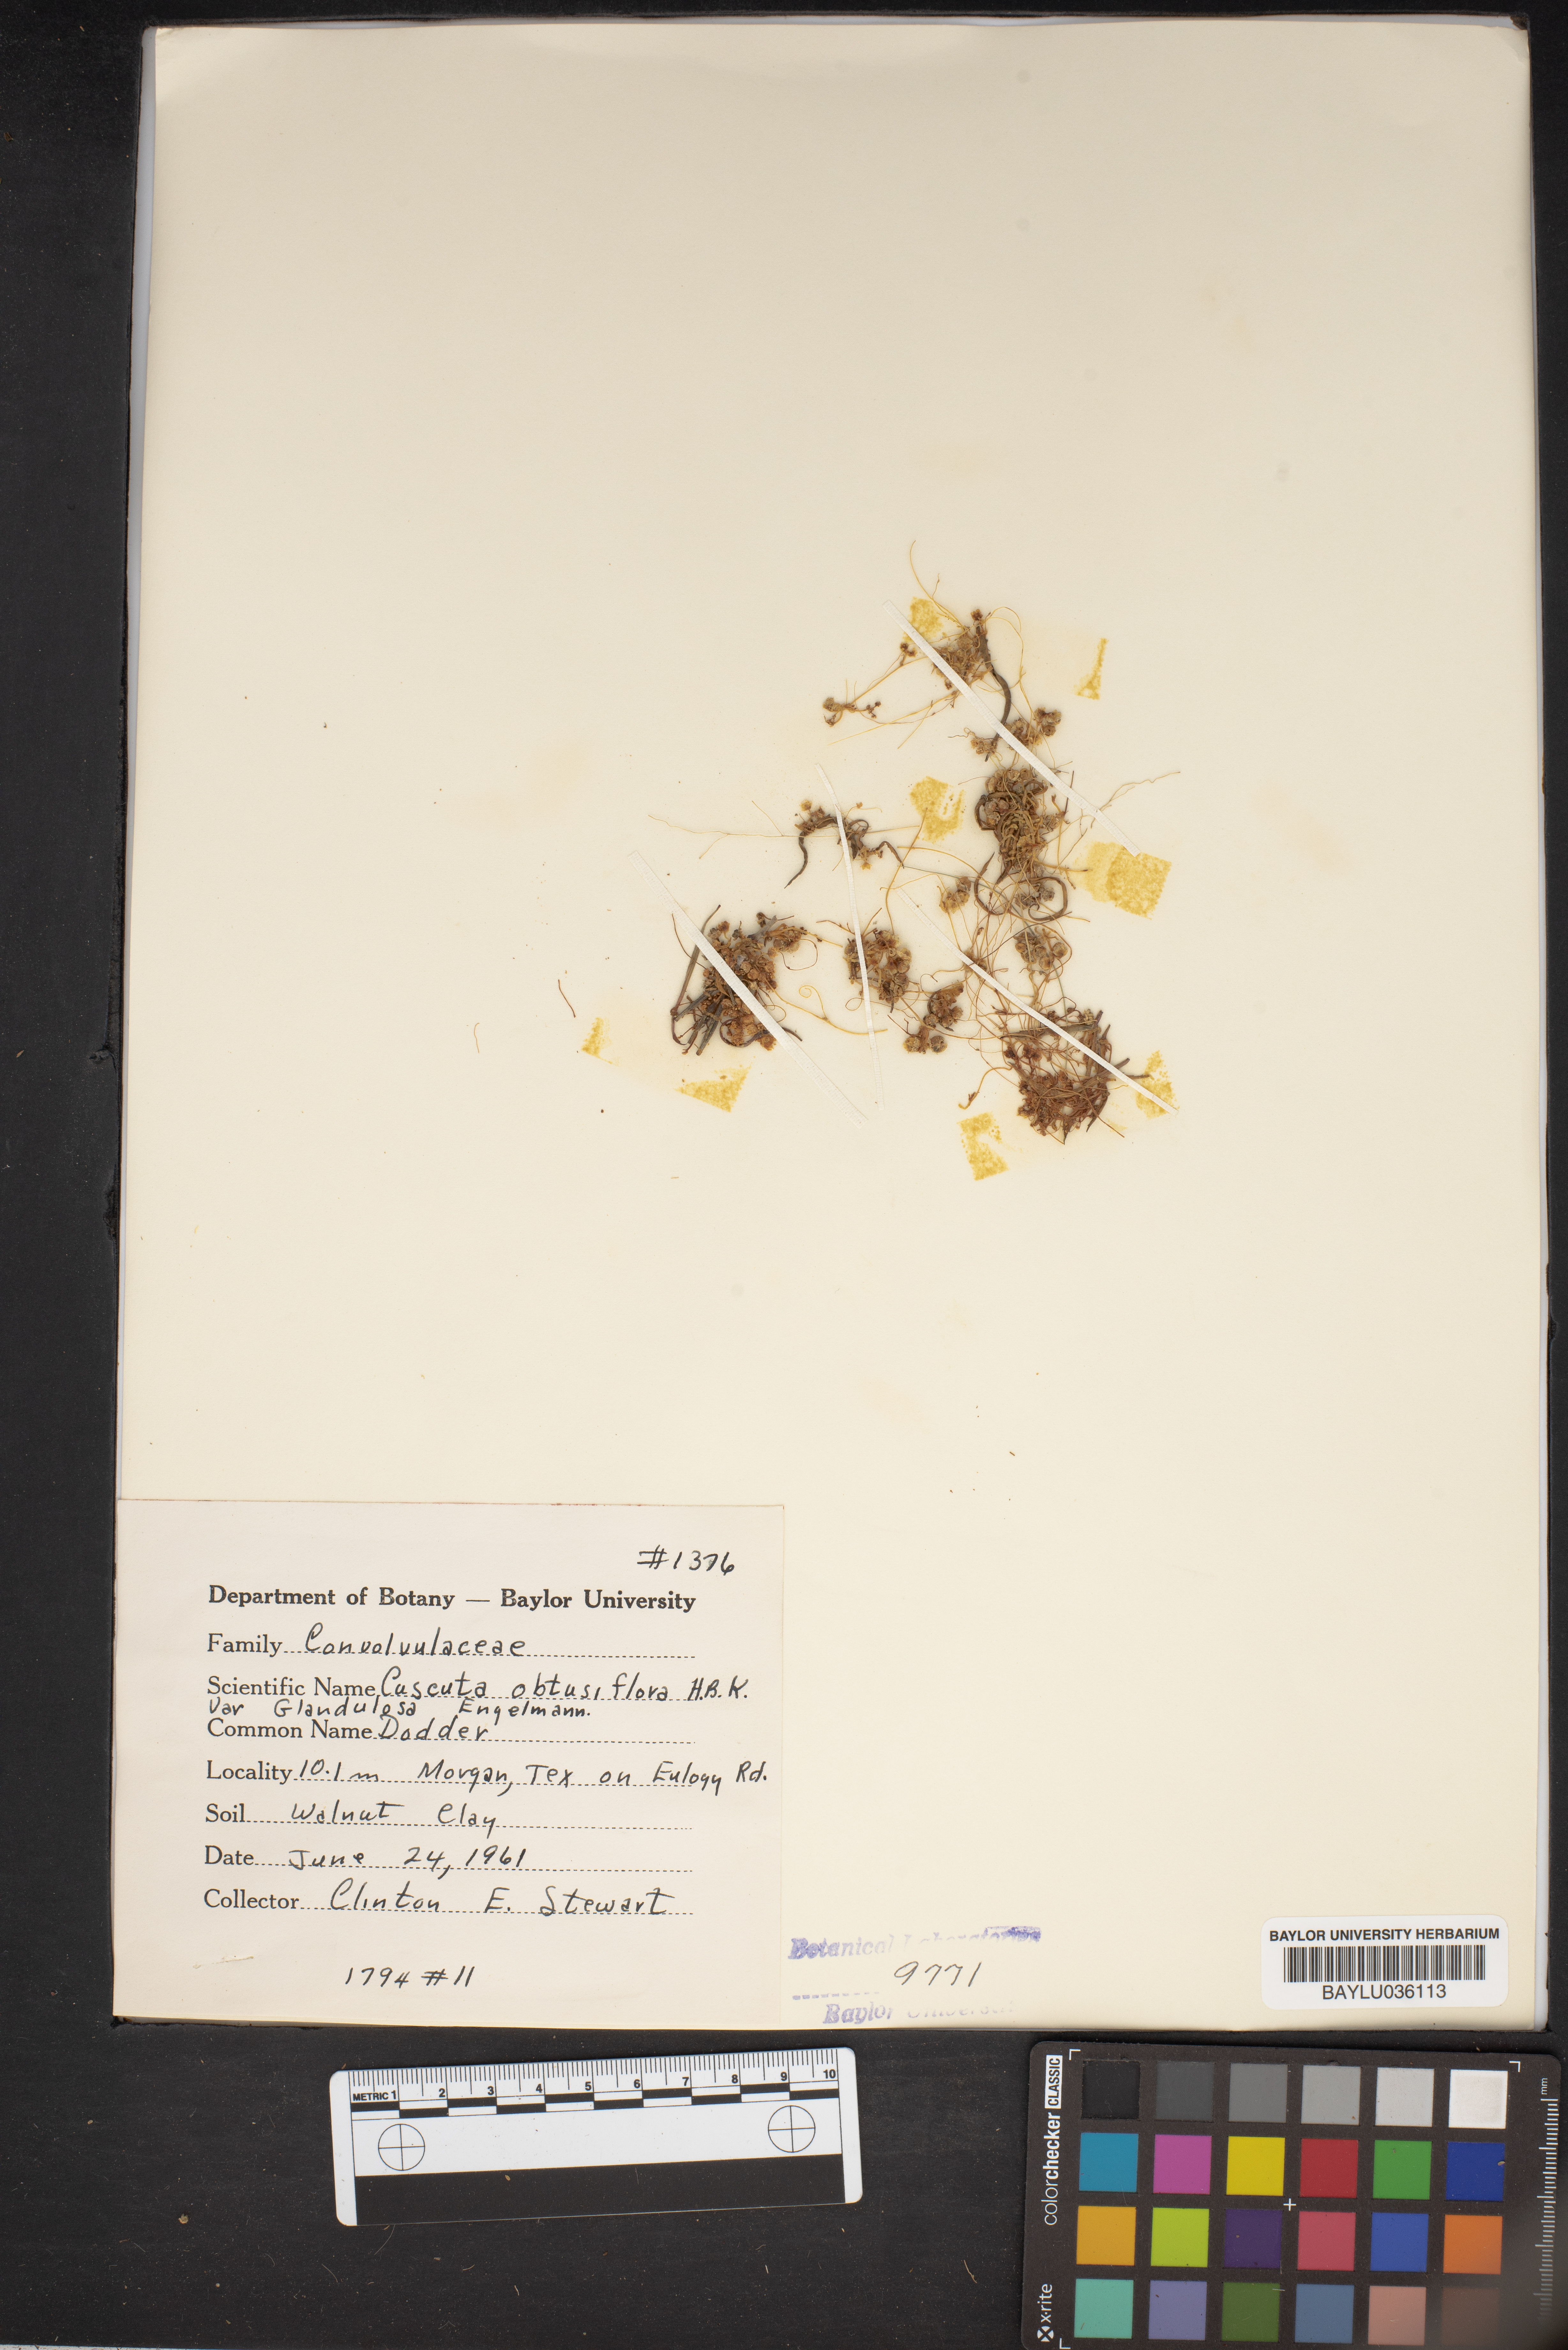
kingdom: Plantae
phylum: Tracheophyta
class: Magnoliopsida
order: Solanales
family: Convolvulaceae
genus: Cuscuta
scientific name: Cuscuta obtusiflora
